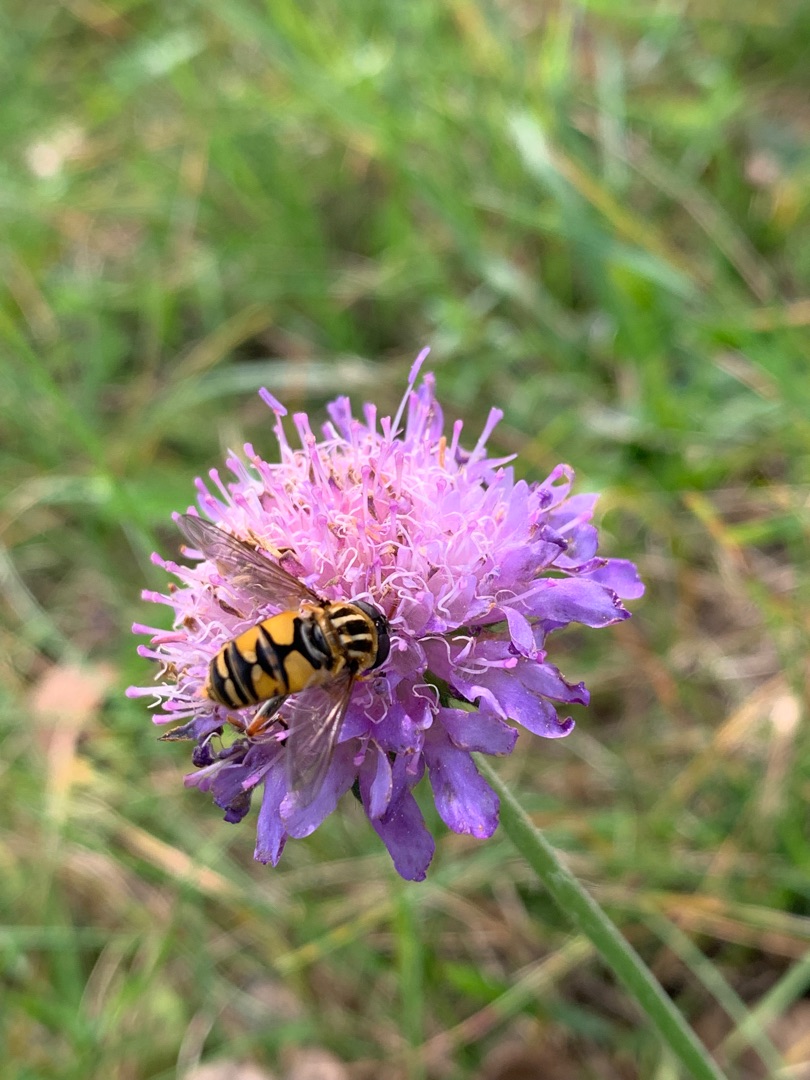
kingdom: Animalia
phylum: Arthropoda
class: Insecta
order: Diptera
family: Syrphidae
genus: Helophilus
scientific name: Helophilus pendulus
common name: Almindelig sumpsvirreflue
